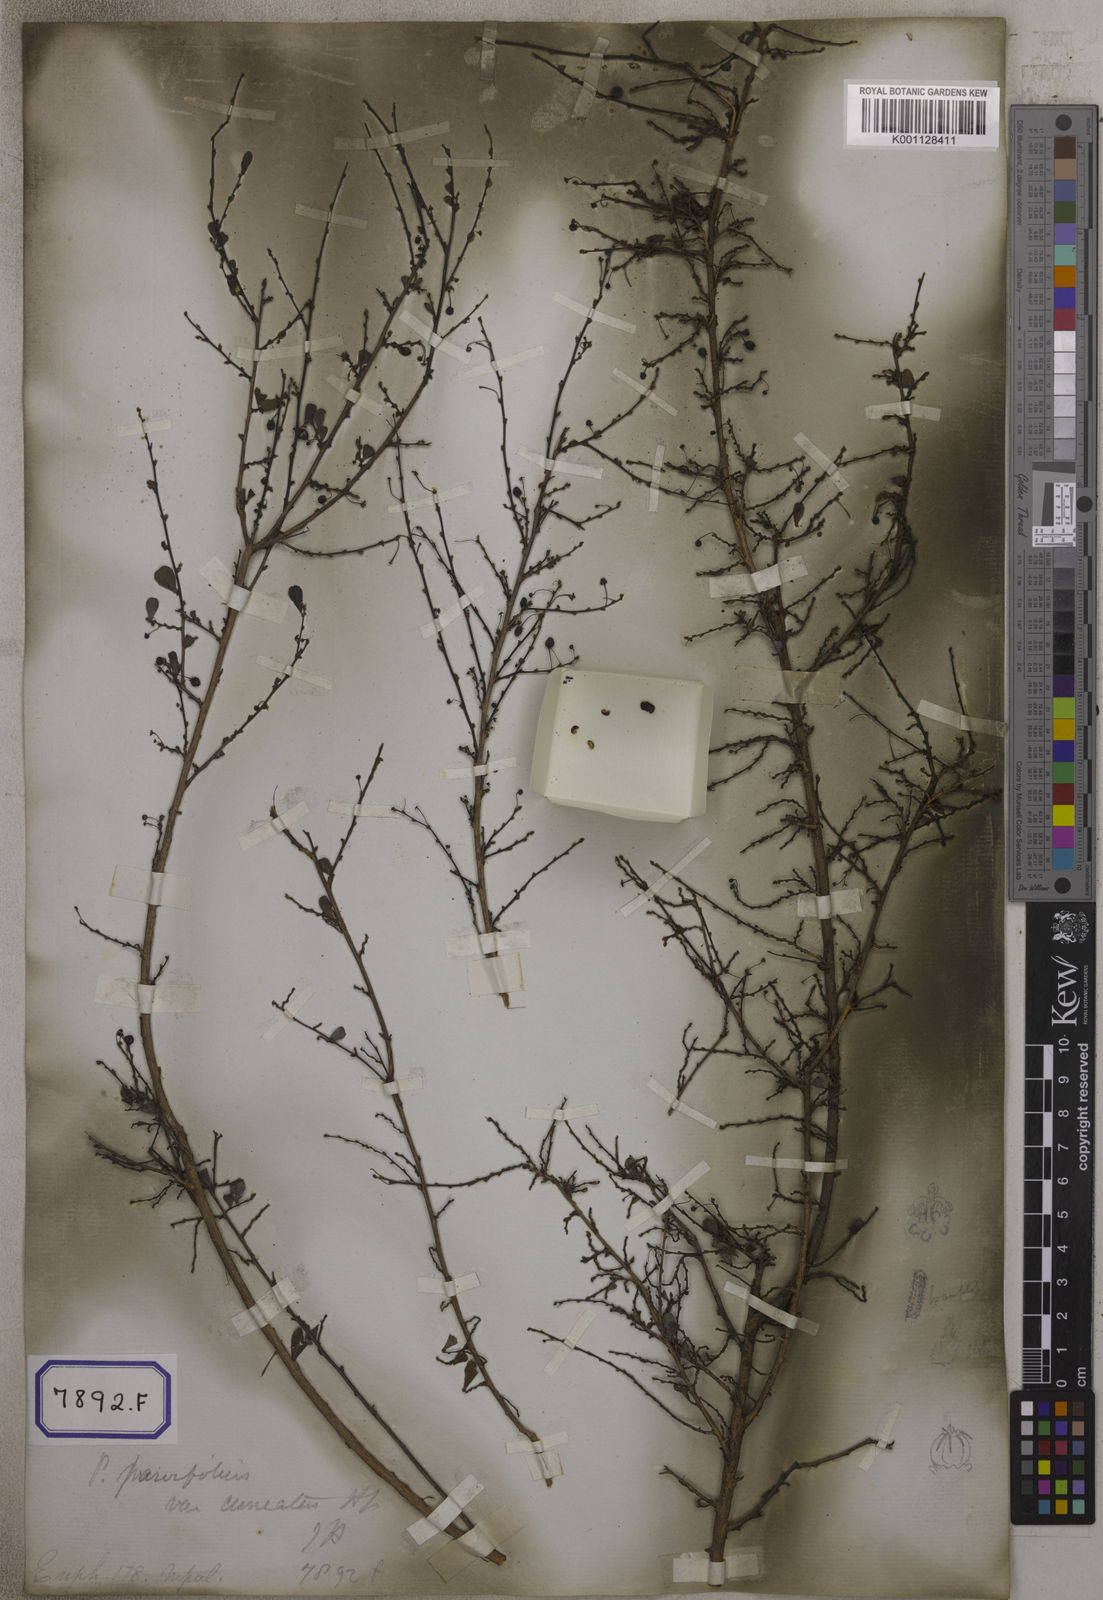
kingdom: Plantae
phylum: Tracheophyta
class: Magnoliopsida
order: Malpighiales
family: Euphorbiaceae
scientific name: Euphorbiaceae
